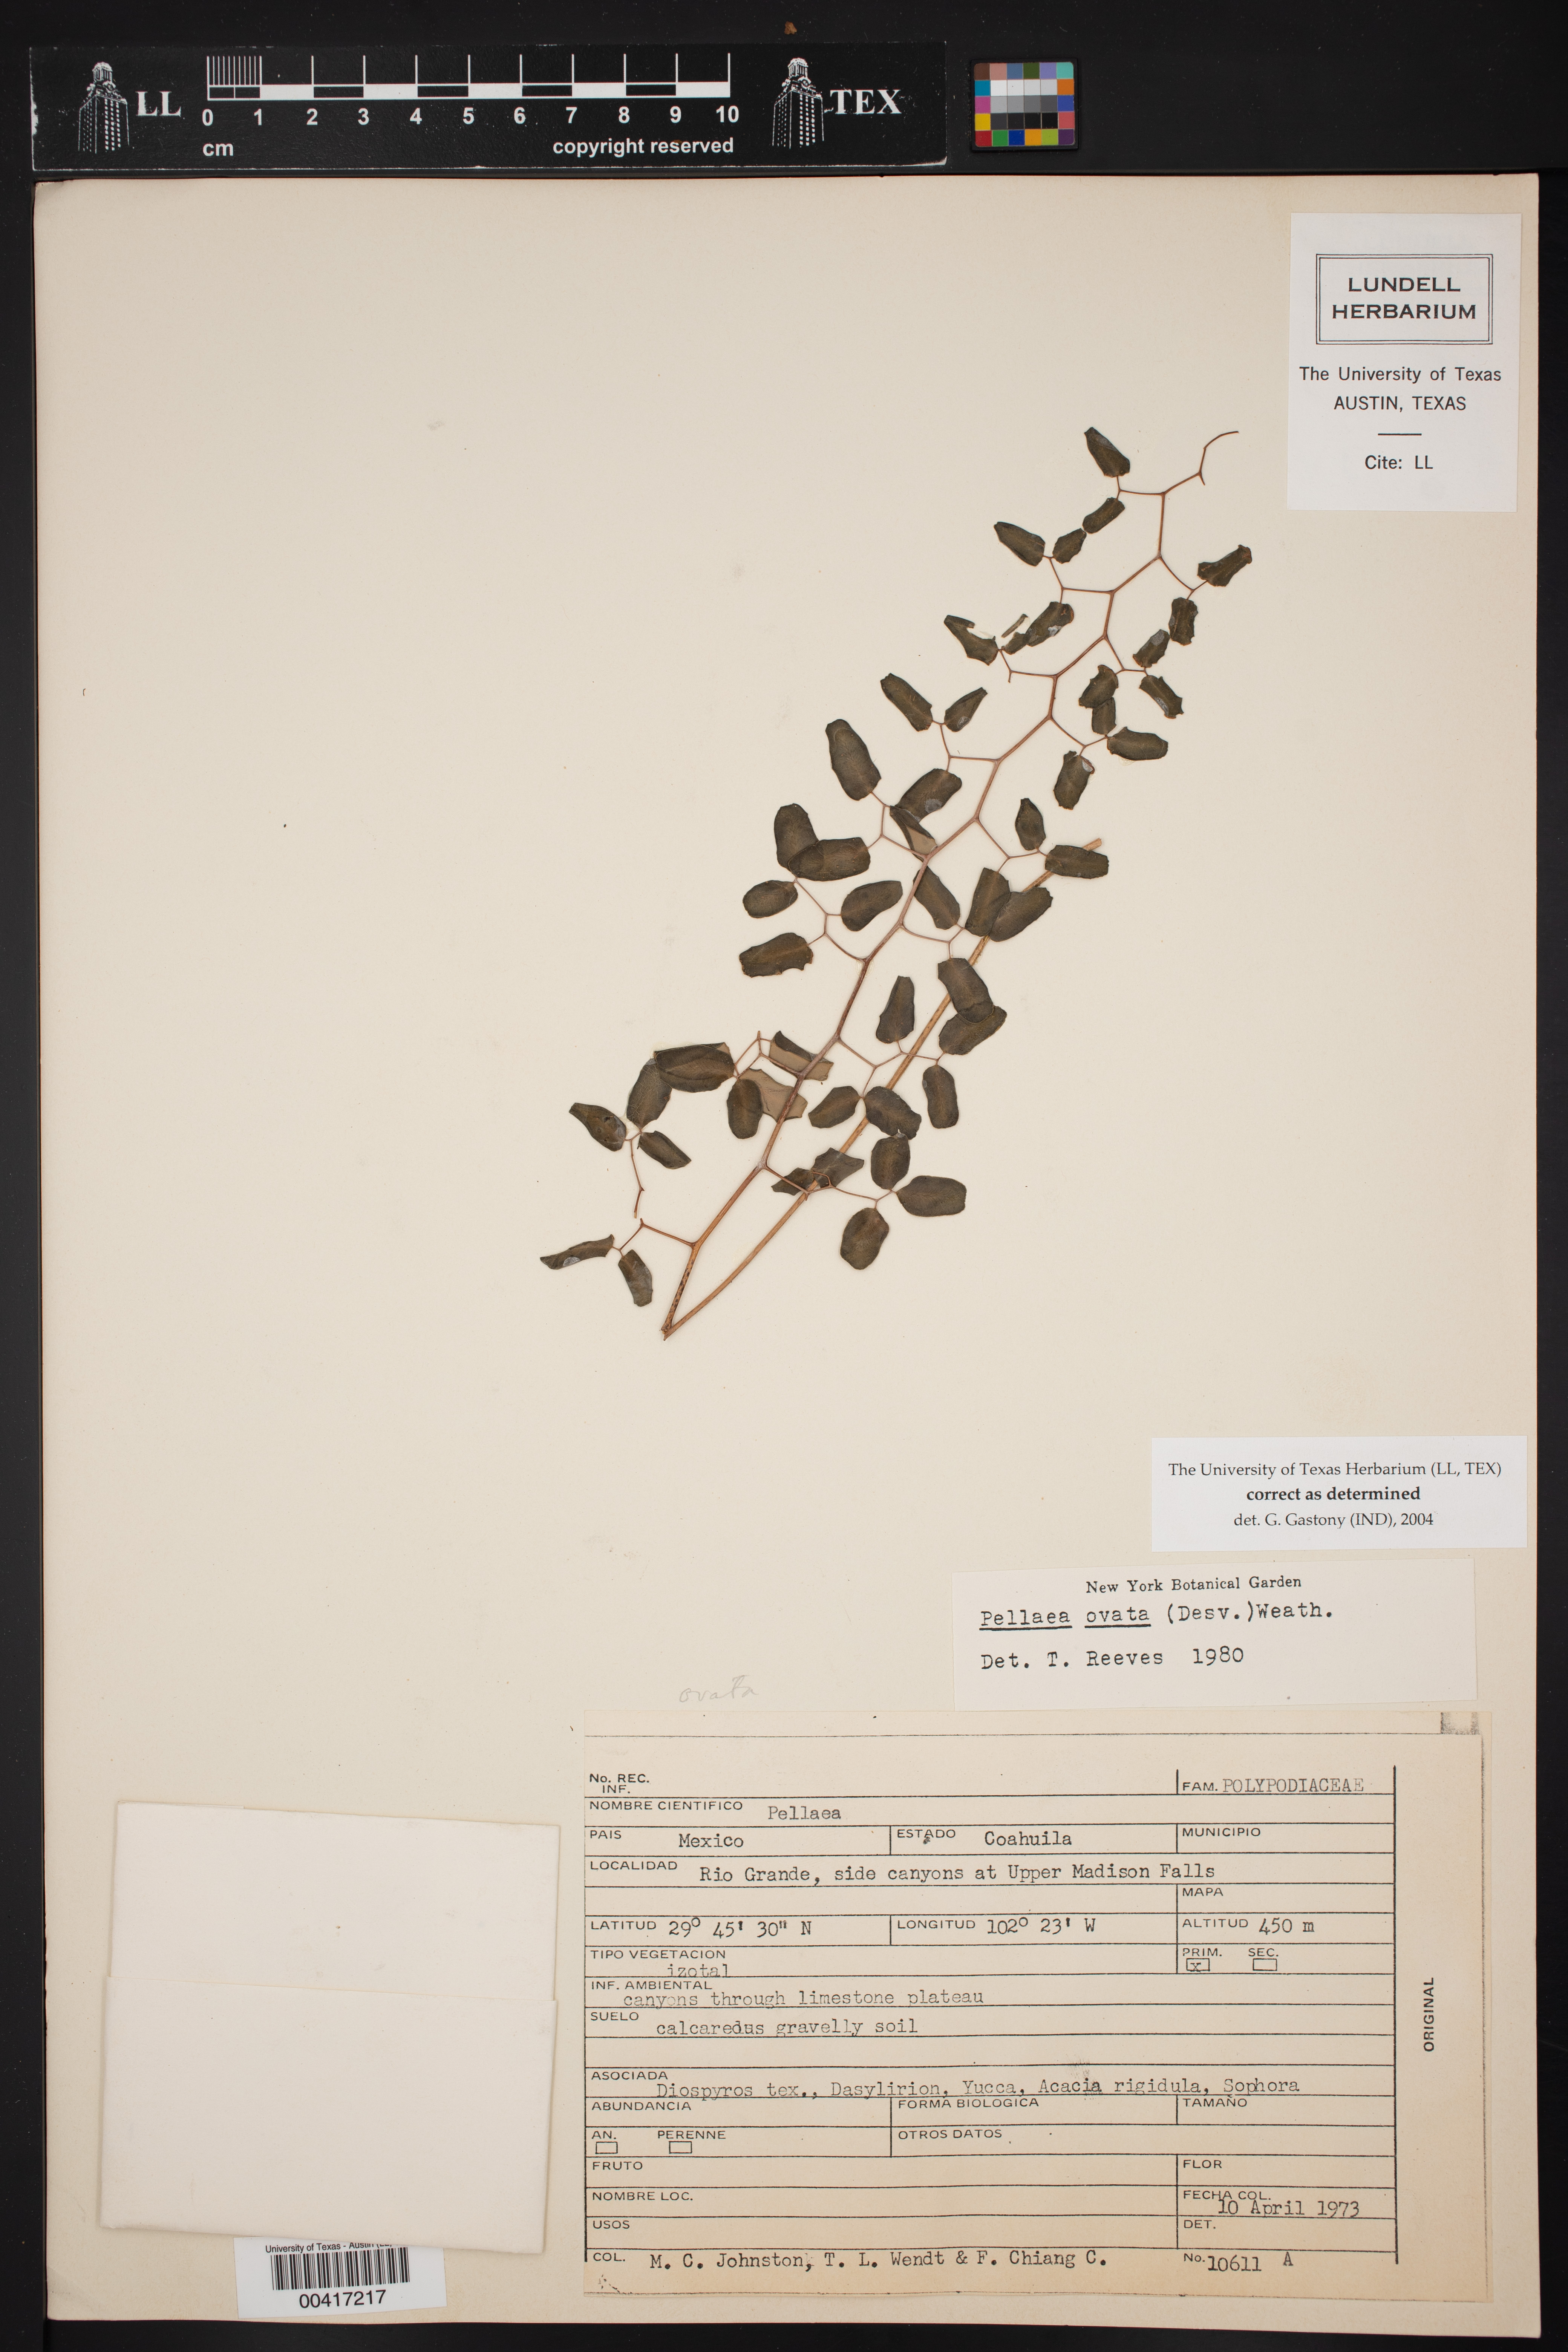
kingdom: Plantae
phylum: Tracheophyta
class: Polypodiopsida
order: Polypodiales
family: Pteridaceae
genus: Pellaea
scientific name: Pellaea ovata
